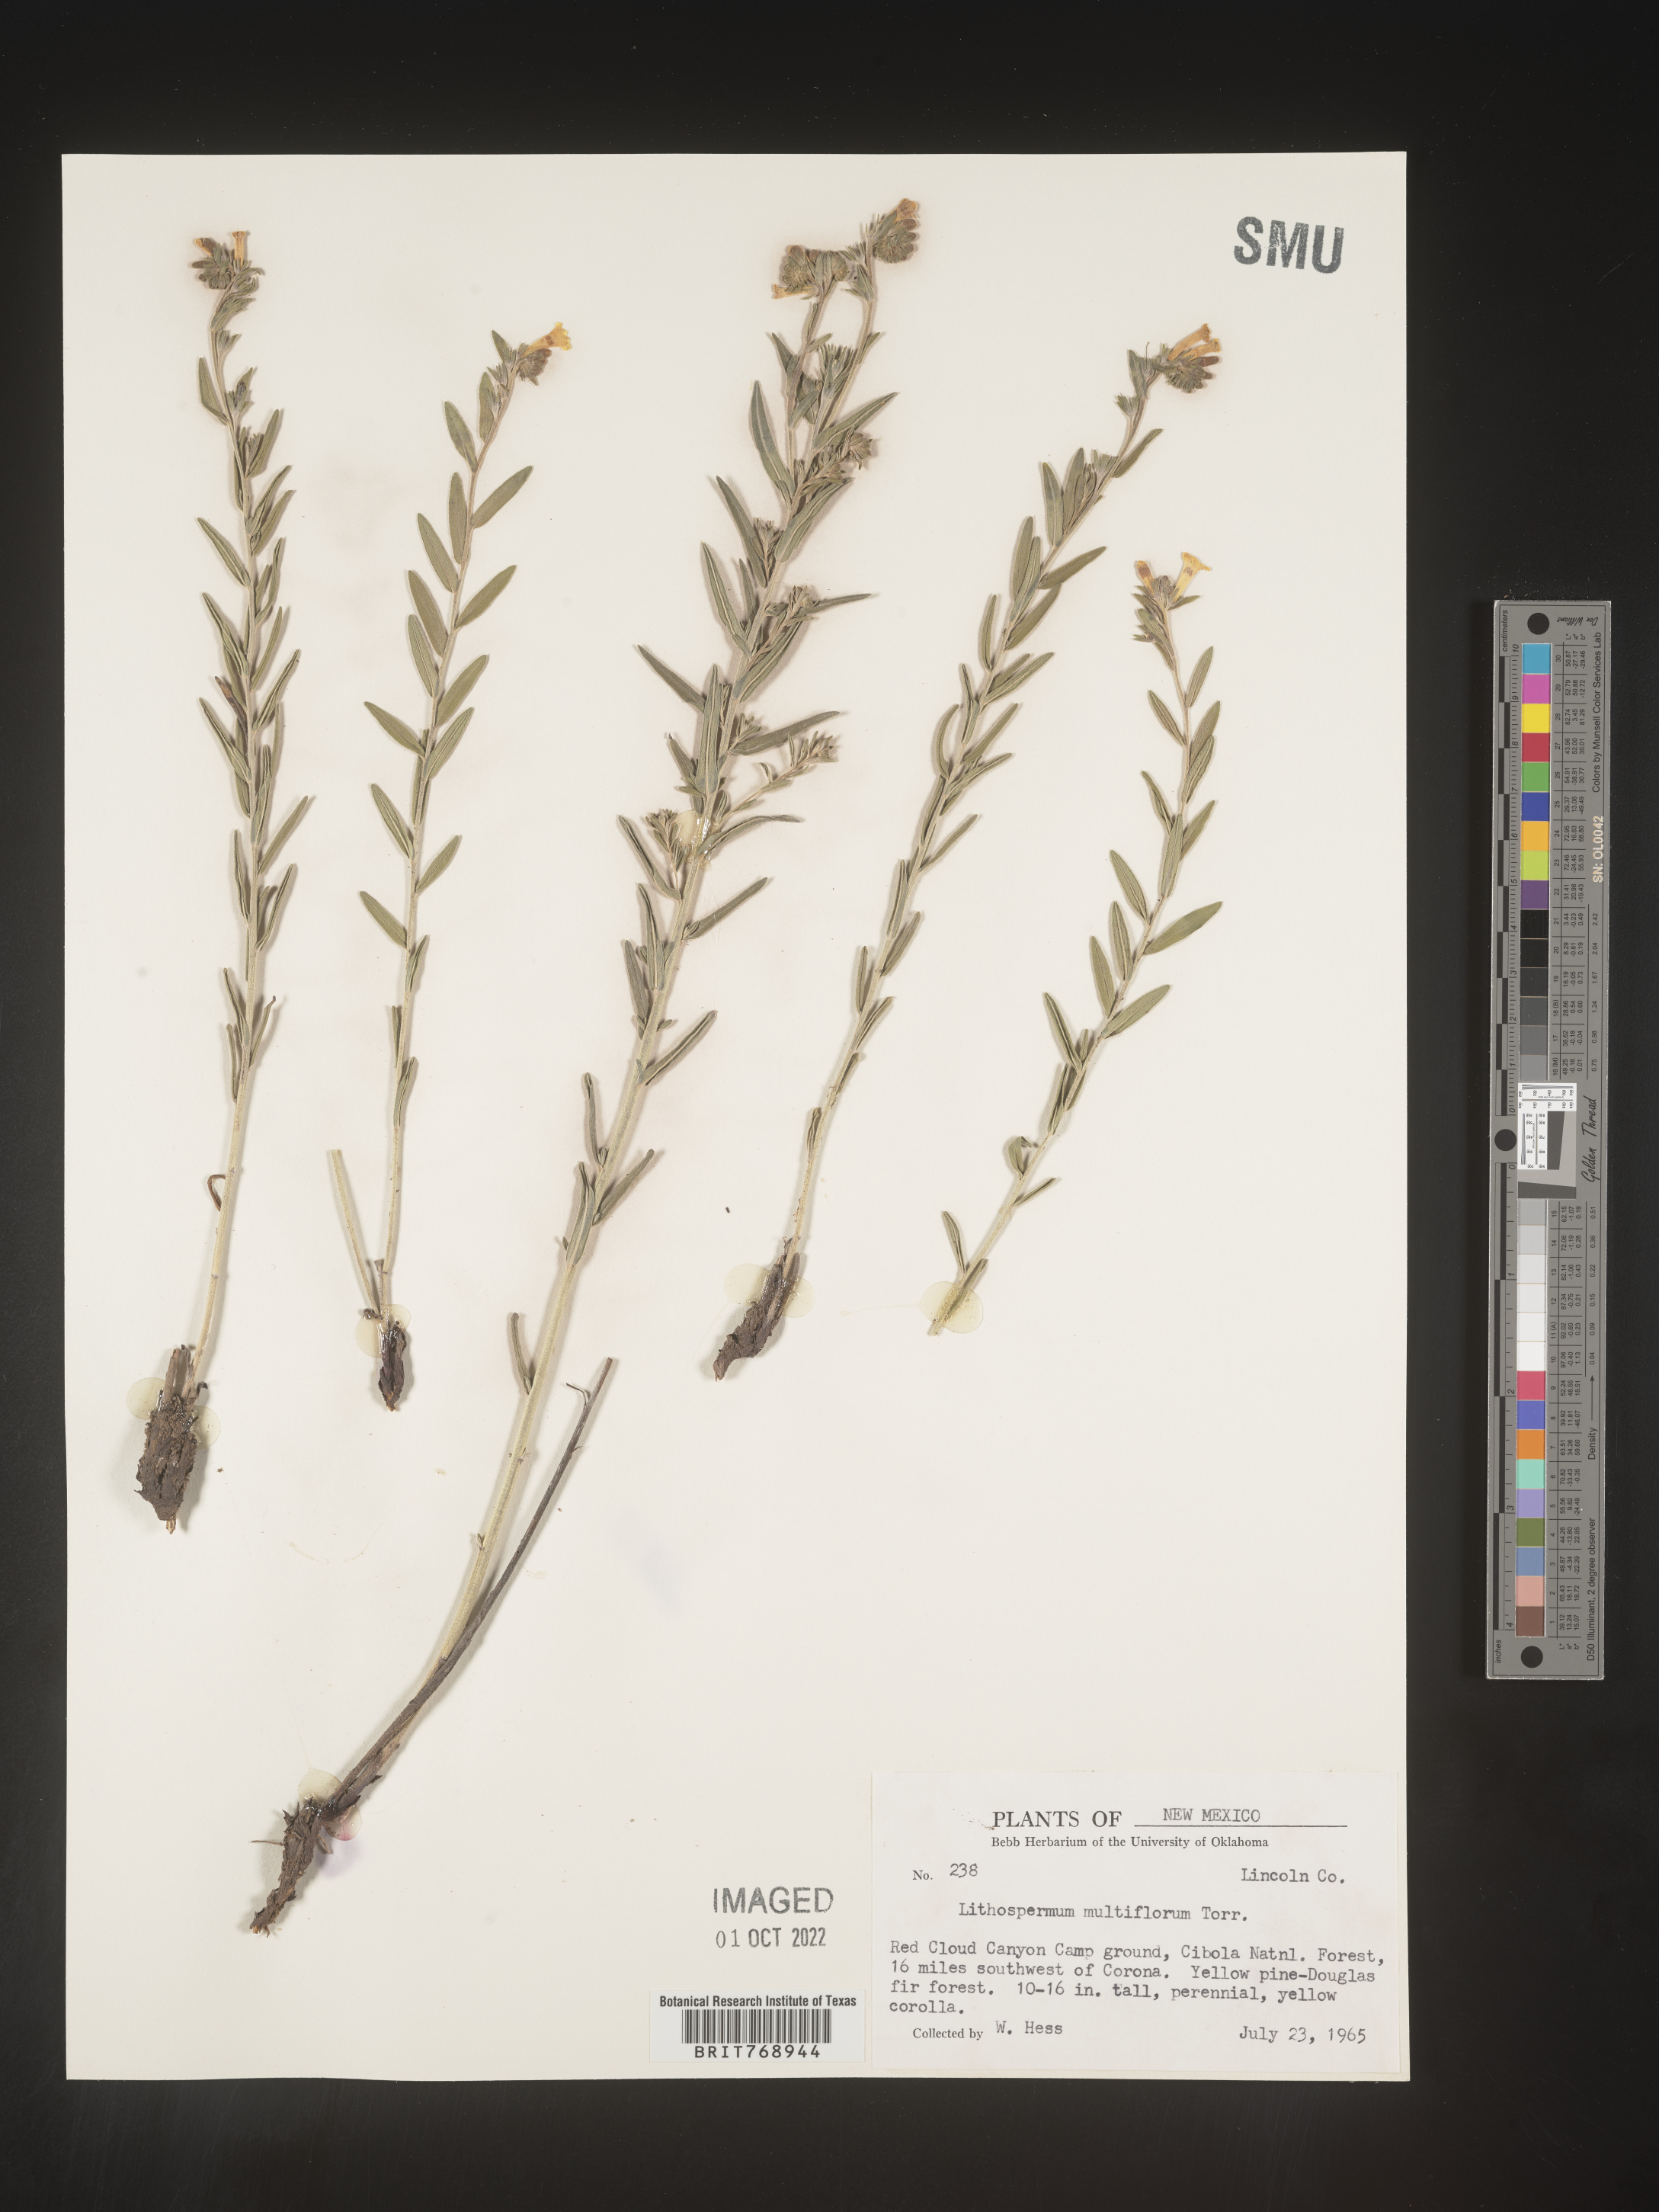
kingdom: Plantae
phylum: Tracheophyta
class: Magnoliopsida
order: Boraginales
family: Boraginaceae
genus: Lithospermum
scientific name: Lithospermum multiflorum
